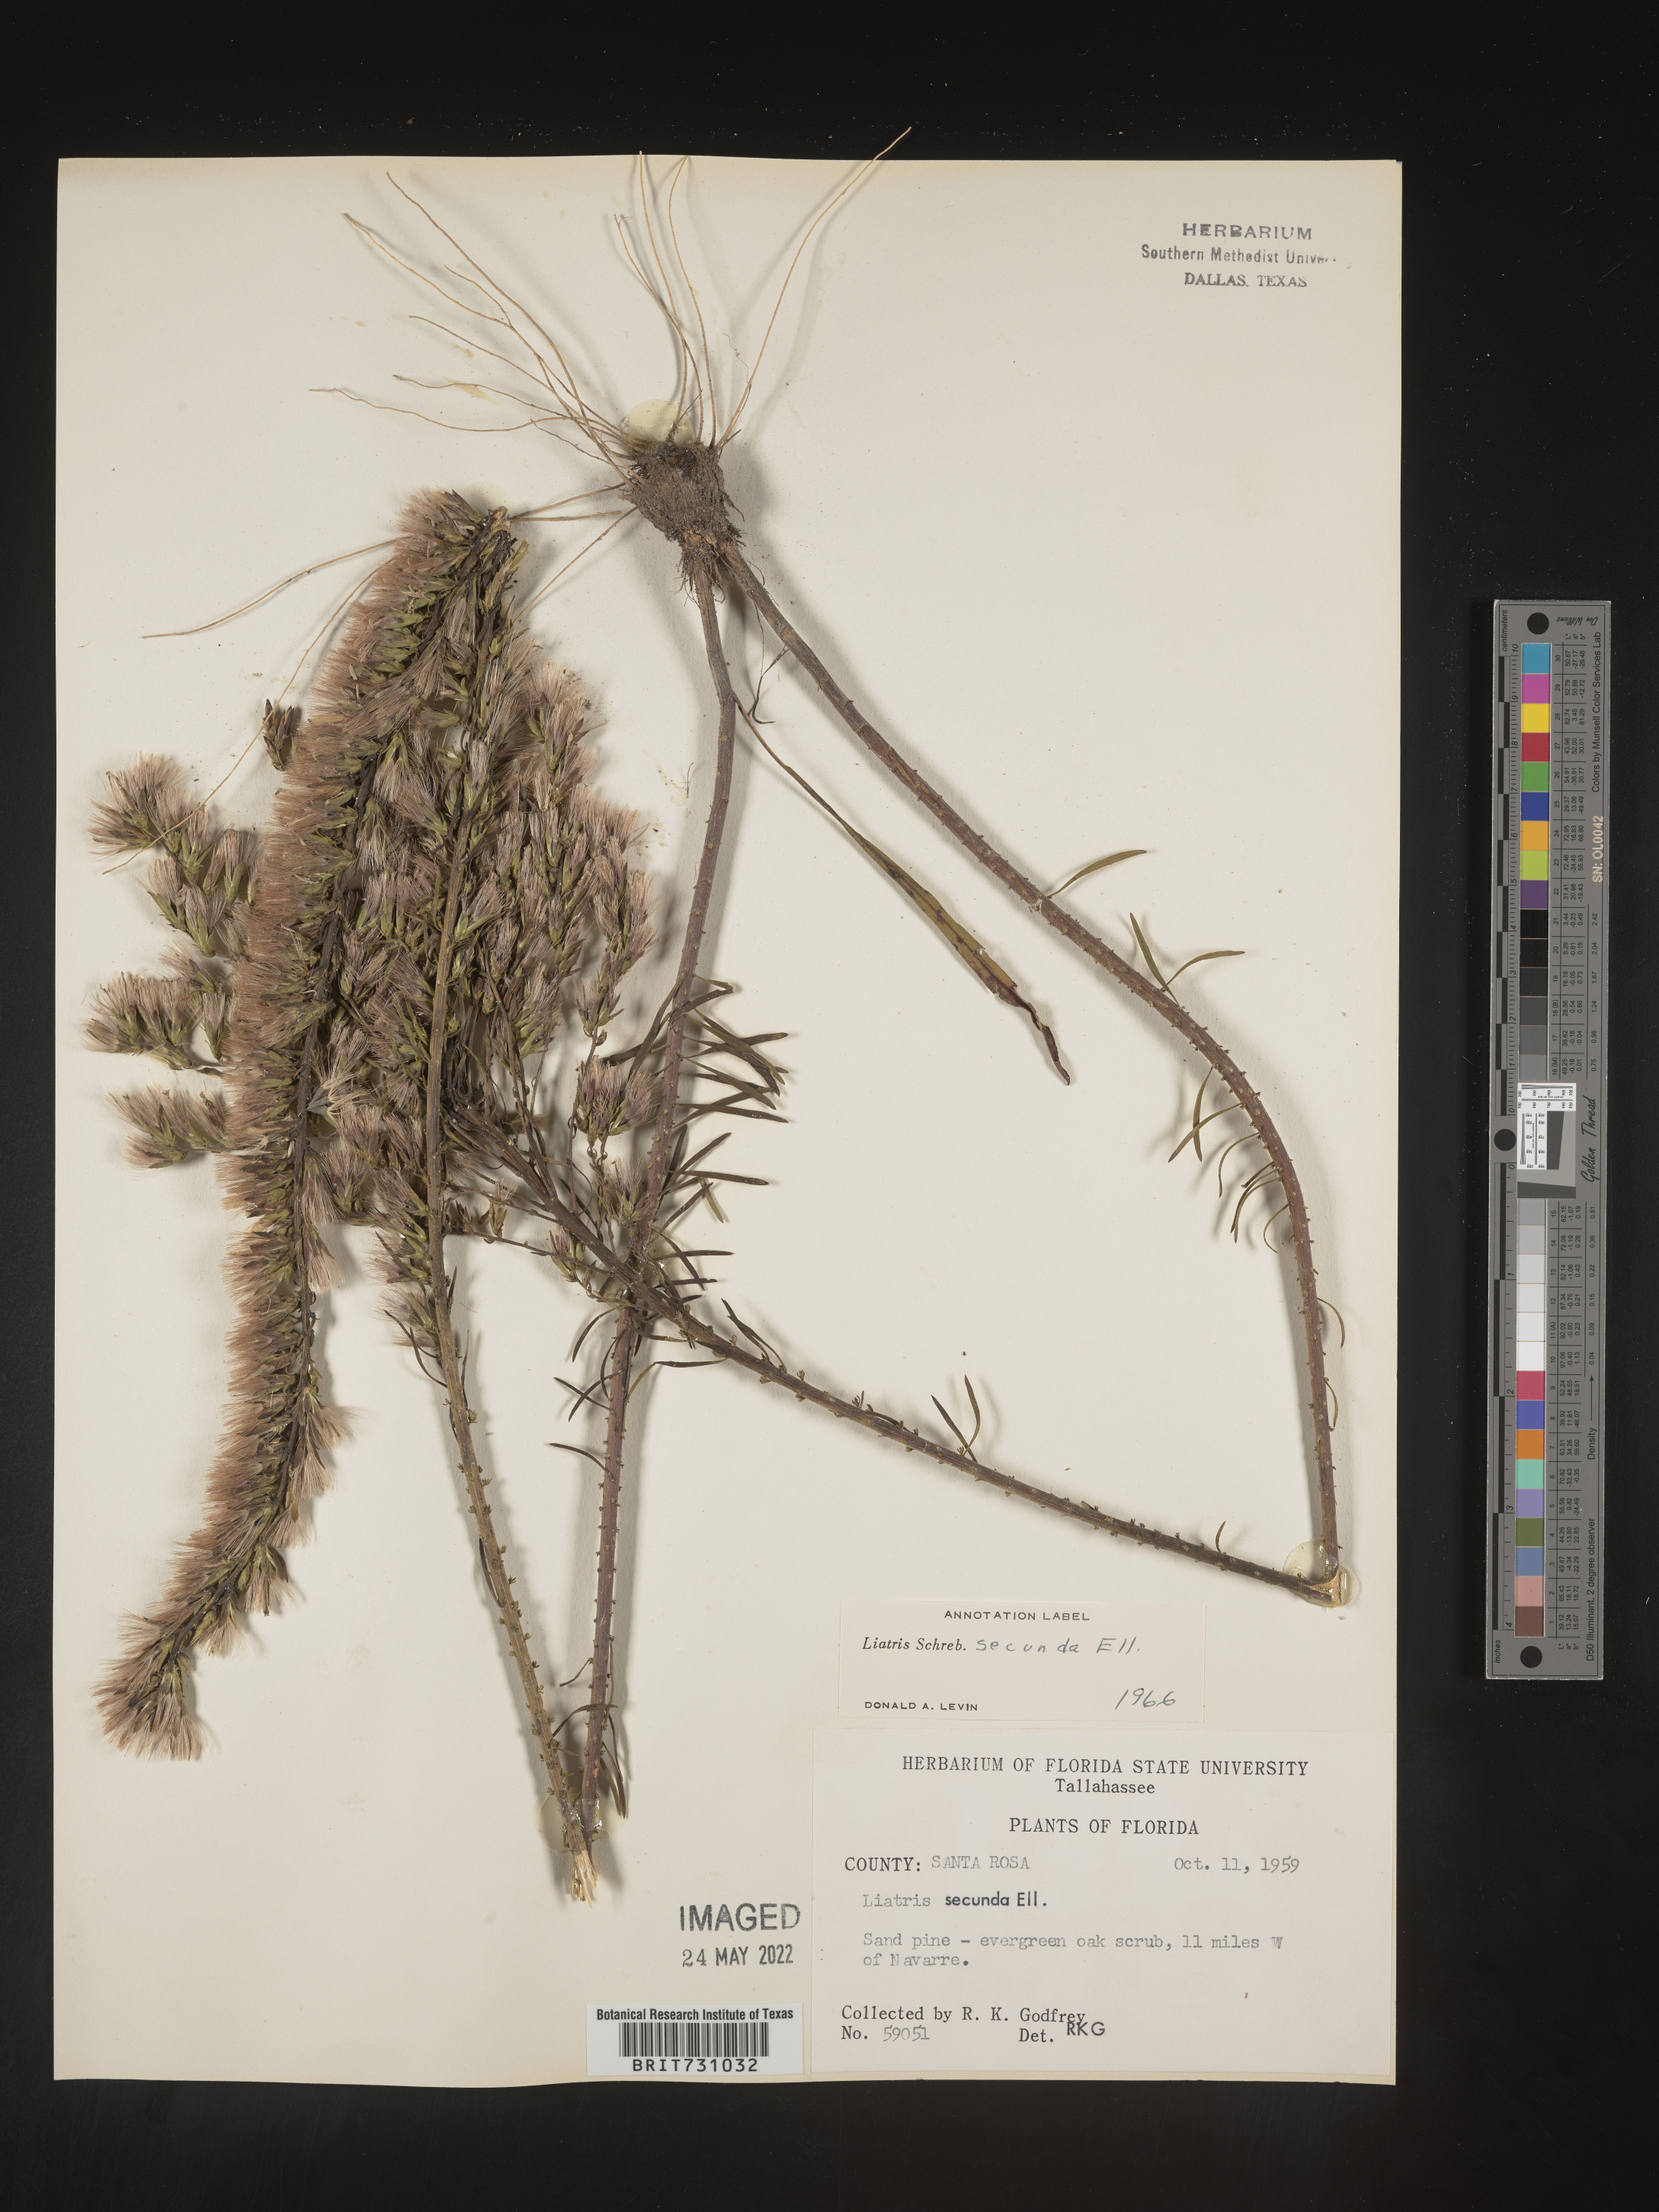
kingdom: Plantae
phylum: Tracheophyta
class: Magnoliopsida
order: Asterales
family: Asteraceae
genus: Liatris
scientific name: Liatris pauciflora
